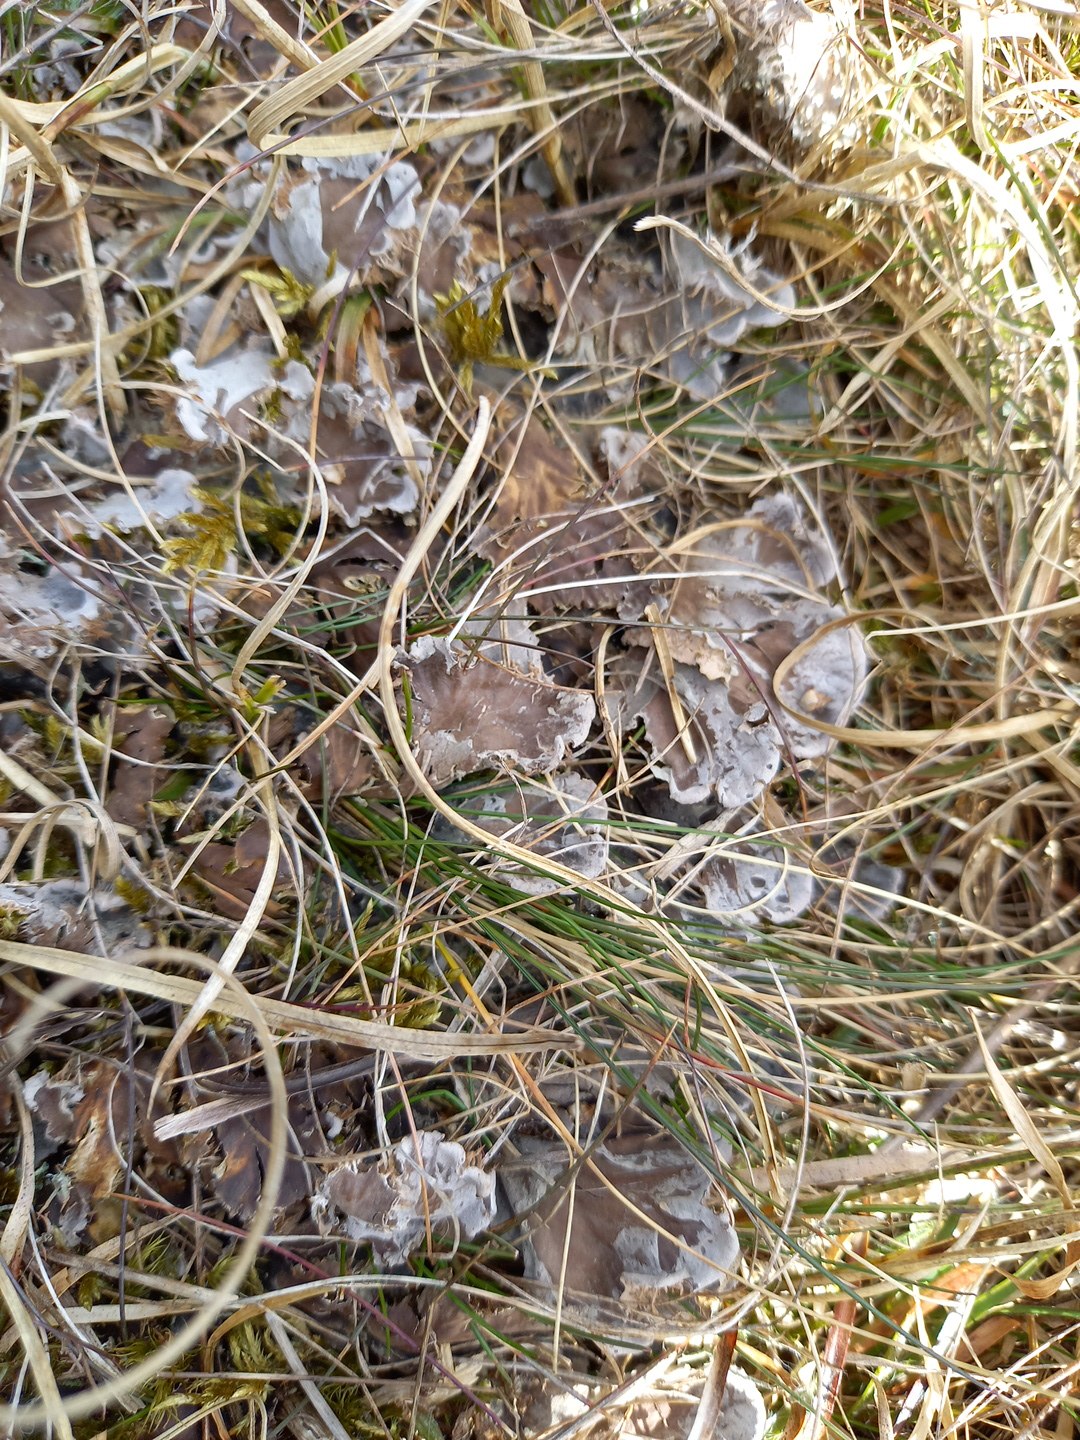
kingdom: Fungi
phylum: Ascomycota
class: Lecanoromycetes
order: Peltigerales
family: Peltigeraceae
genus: Peltigera
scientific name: Peltigera canina
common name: hunde-skjoldlav
